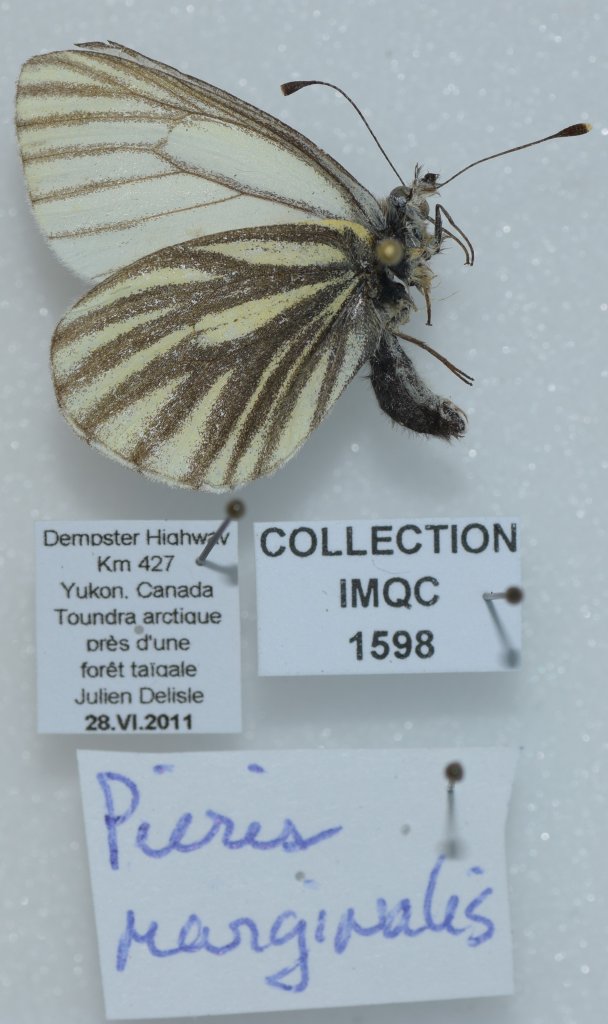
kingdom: Animalia
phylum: Arthropoda
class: Insecta
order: Lepidoptera
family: Pieridae
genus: Pieris
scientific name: Pieris marginalis
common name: Margined White
